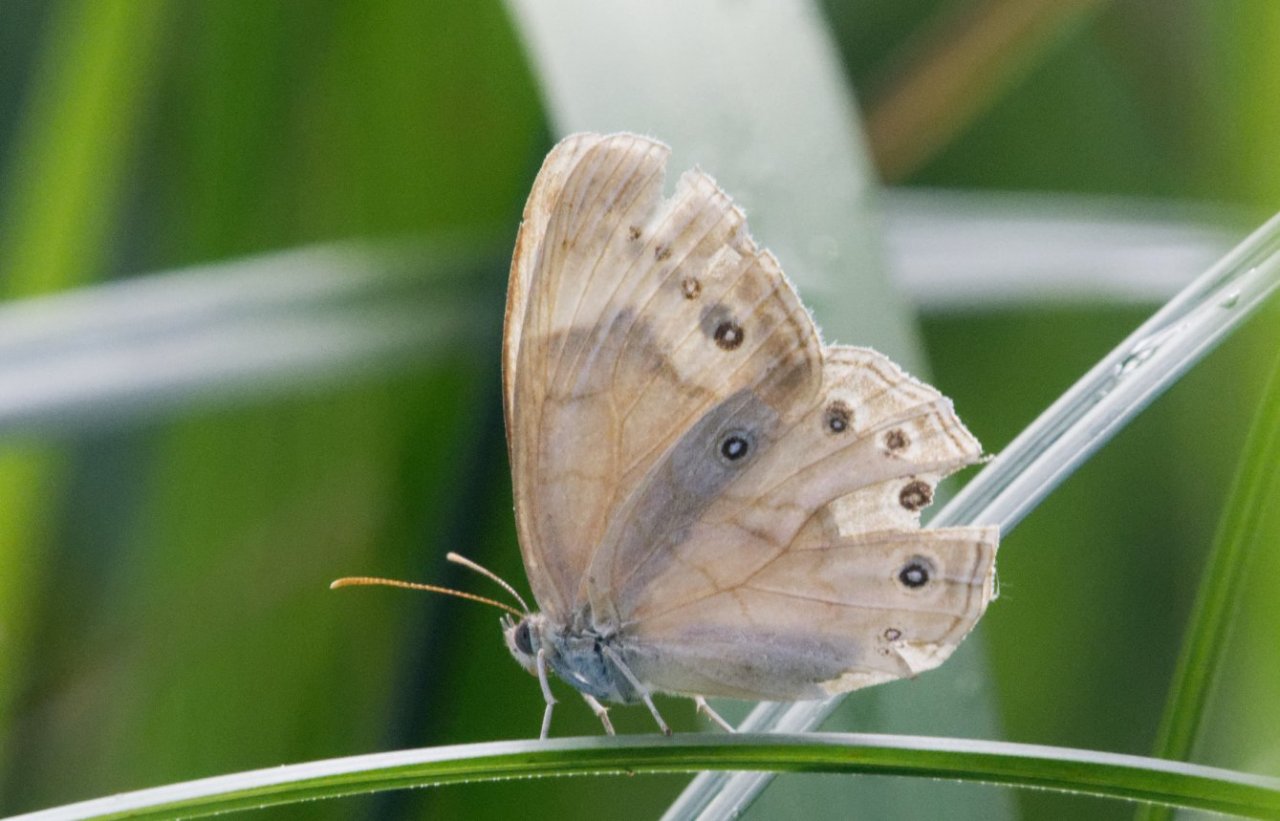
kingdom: Animalia
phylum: Arthropoda
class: Insecta
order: Lepidoptera
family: Nymphalidae
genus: Lethe
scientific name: Lethe eurydice
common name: Eyed Brown
